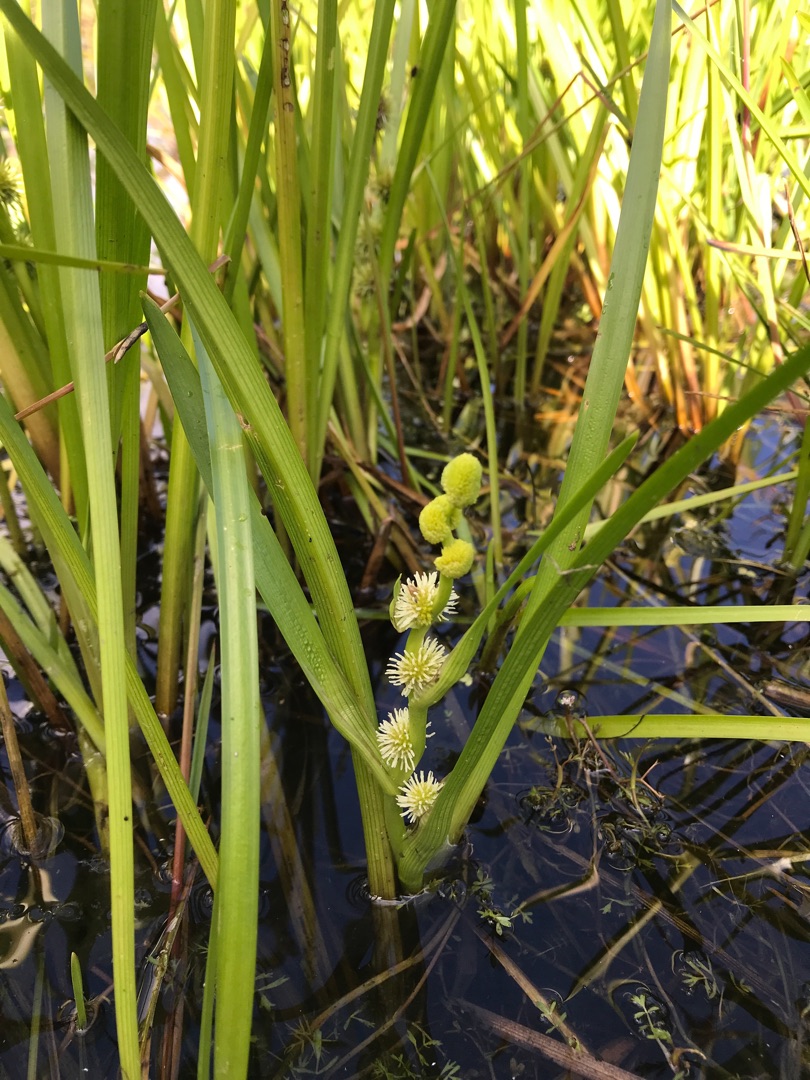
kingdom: Plantae
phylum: Tracheophyta
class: Liliopsida
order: Poales
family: Typhaceae
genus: Sparganium
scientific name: Sparganium emersum
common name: Enkelt pindsvineknop
